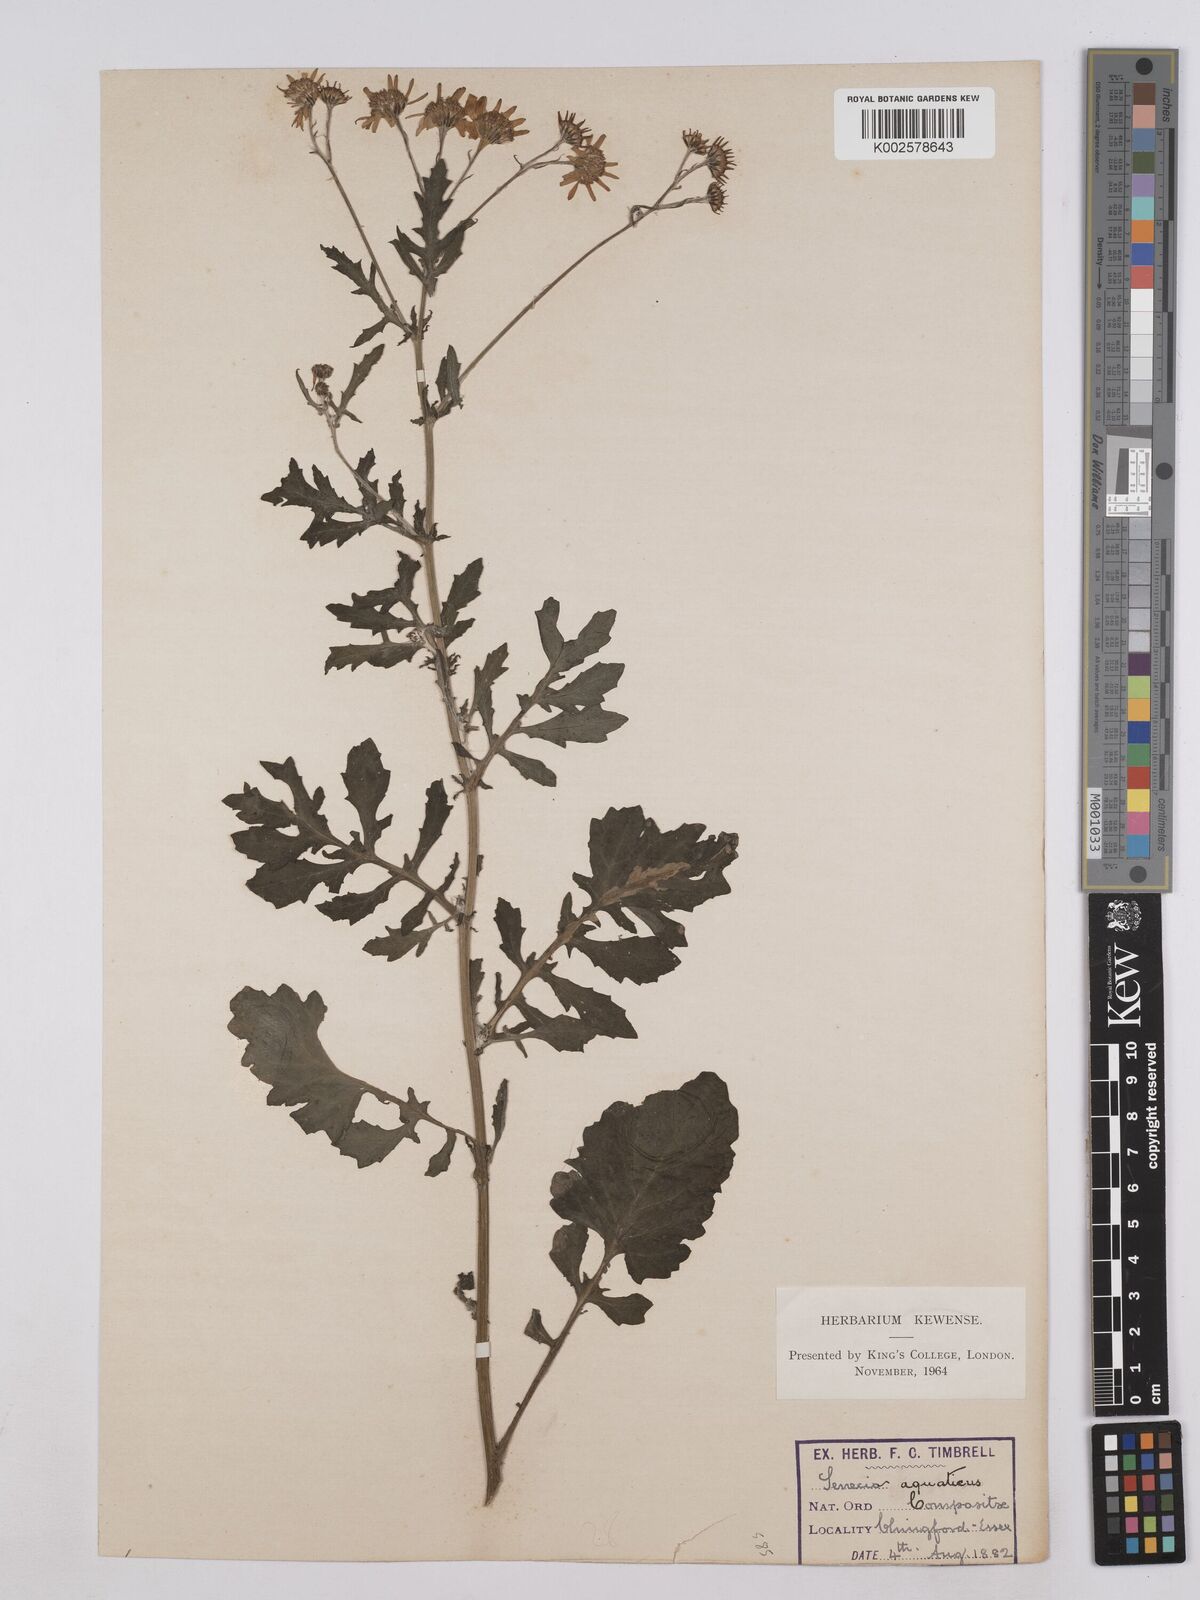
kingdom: Plantae
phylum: Tracheophyta
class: Magnoliopsida
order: Asterales
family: Asteraceae
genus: Jacobaea
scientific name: Jacobaea aquatica
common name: Water ragwort
